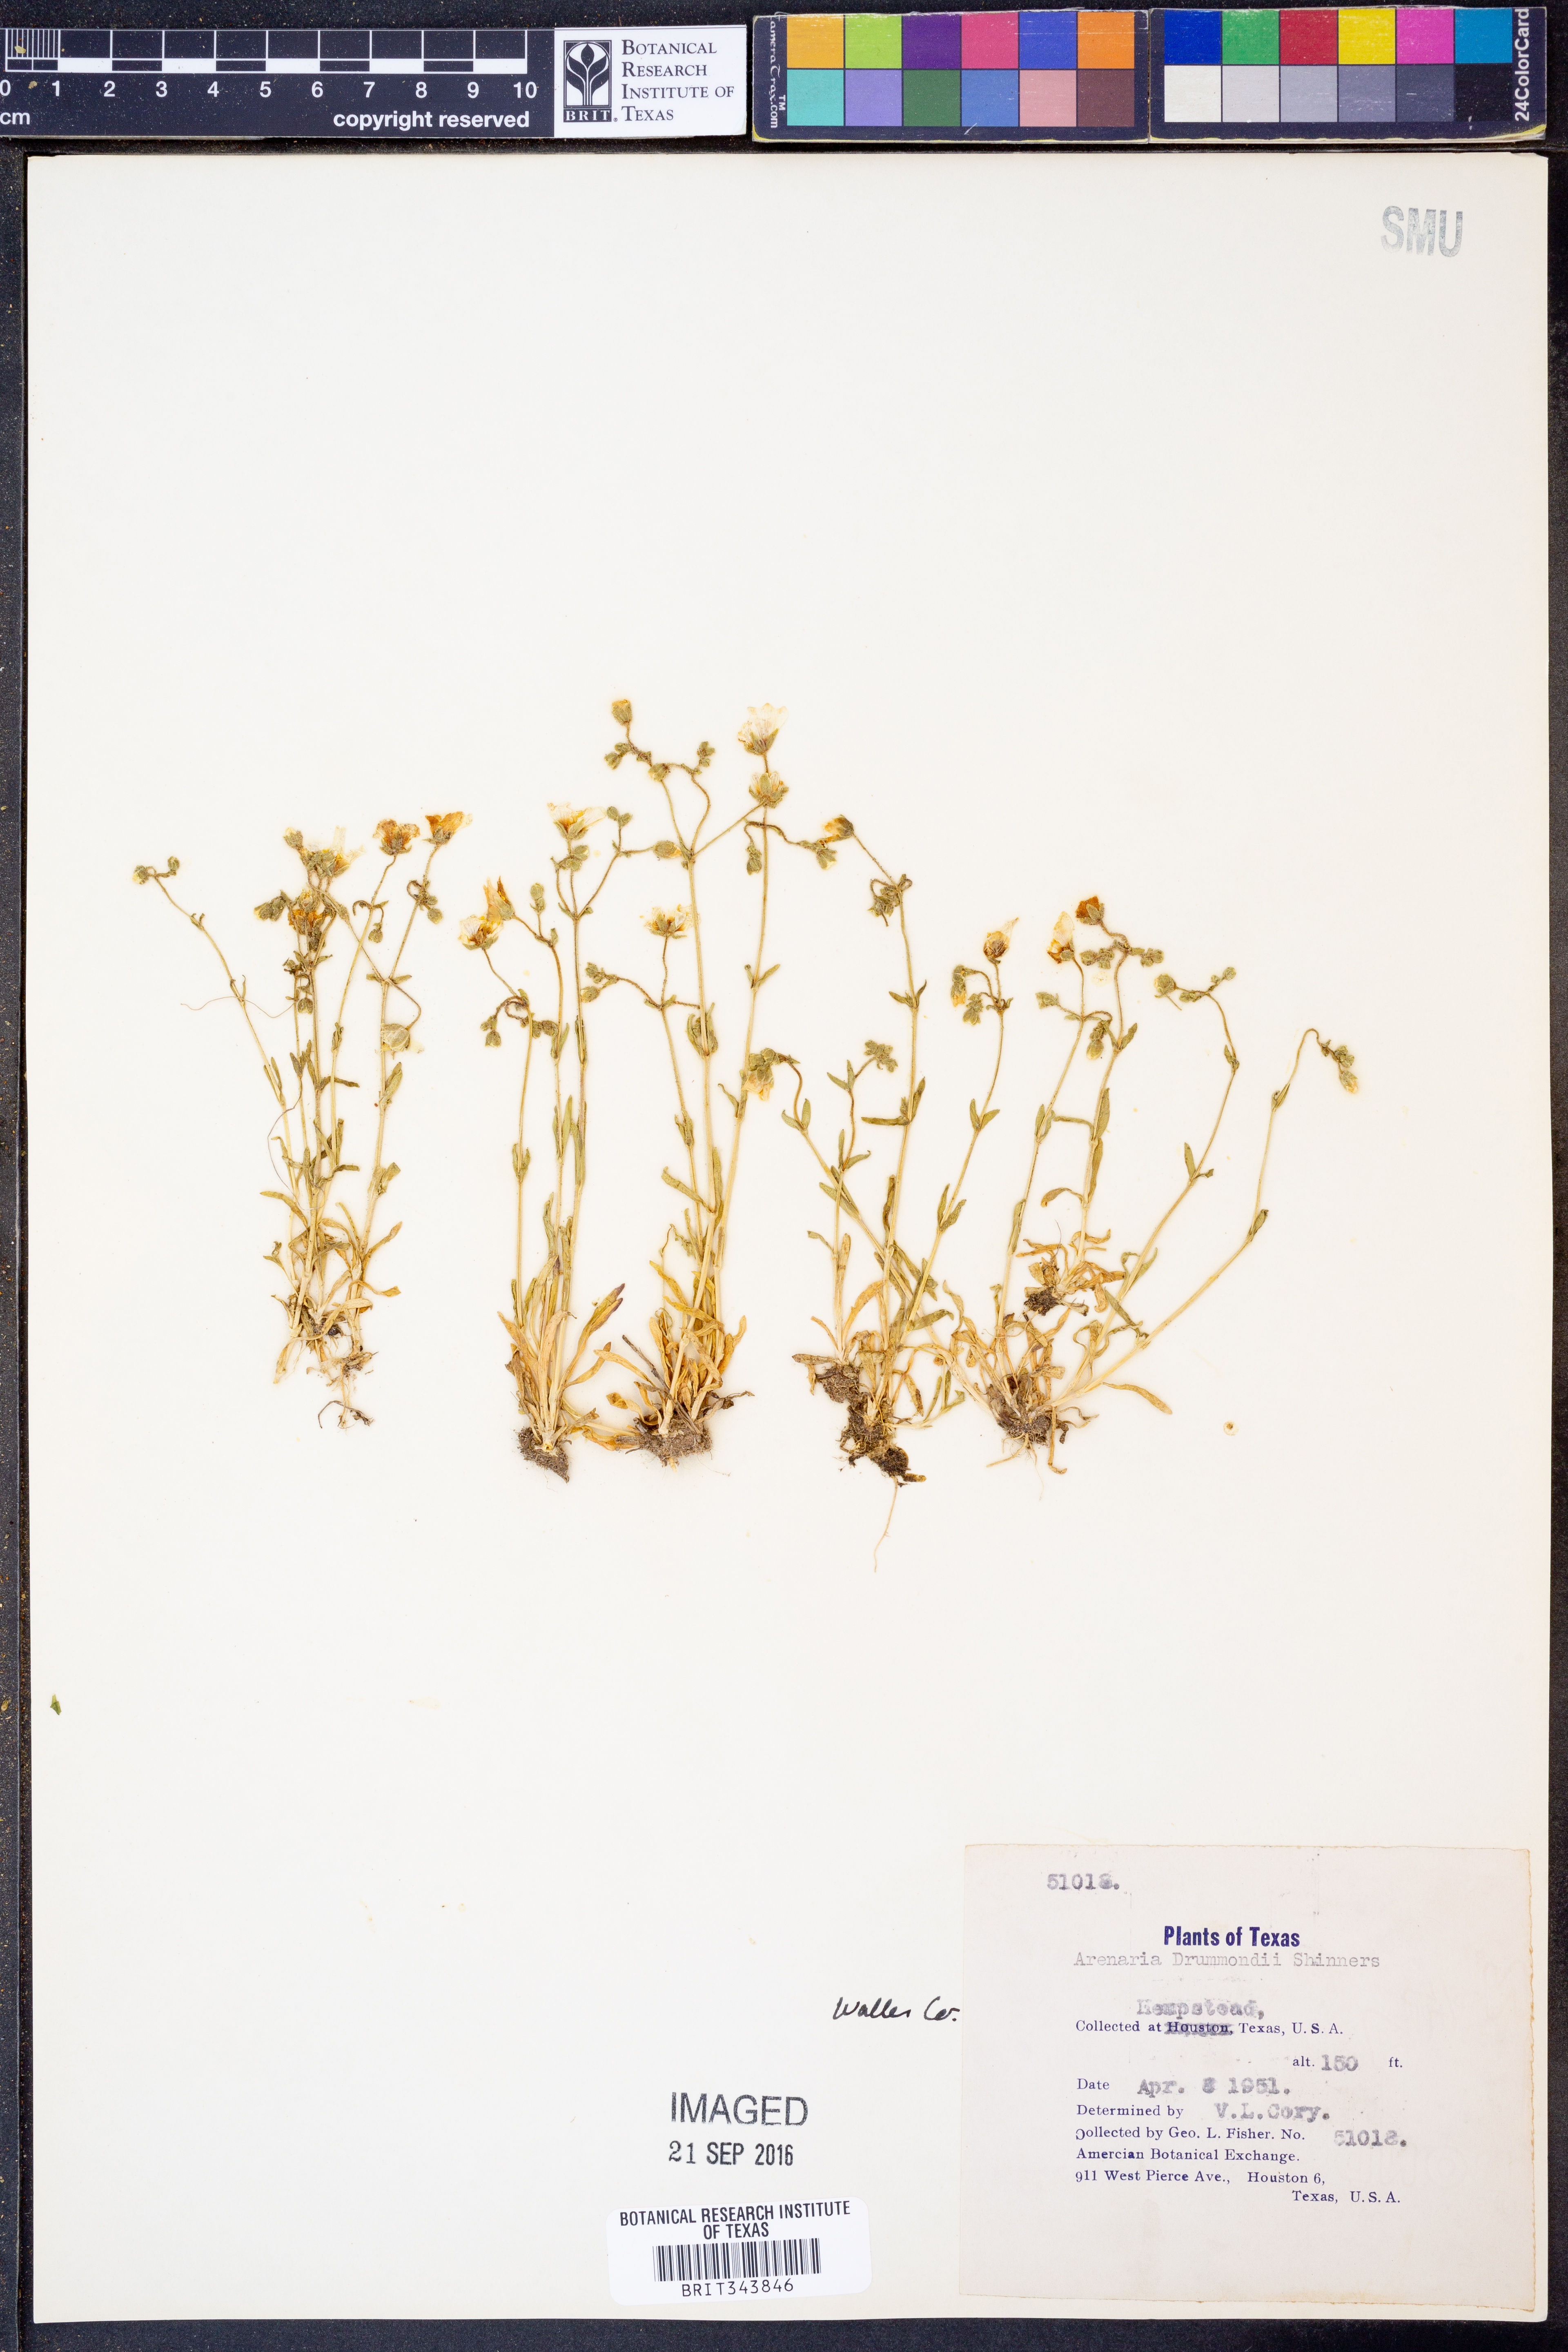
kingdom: Plantae
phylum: Tracheophyta
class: Magnoliopsida
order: Caryophyllales
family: Caryophyllaceae
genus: Geocarpon
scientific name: Geocarpon nuttallii
